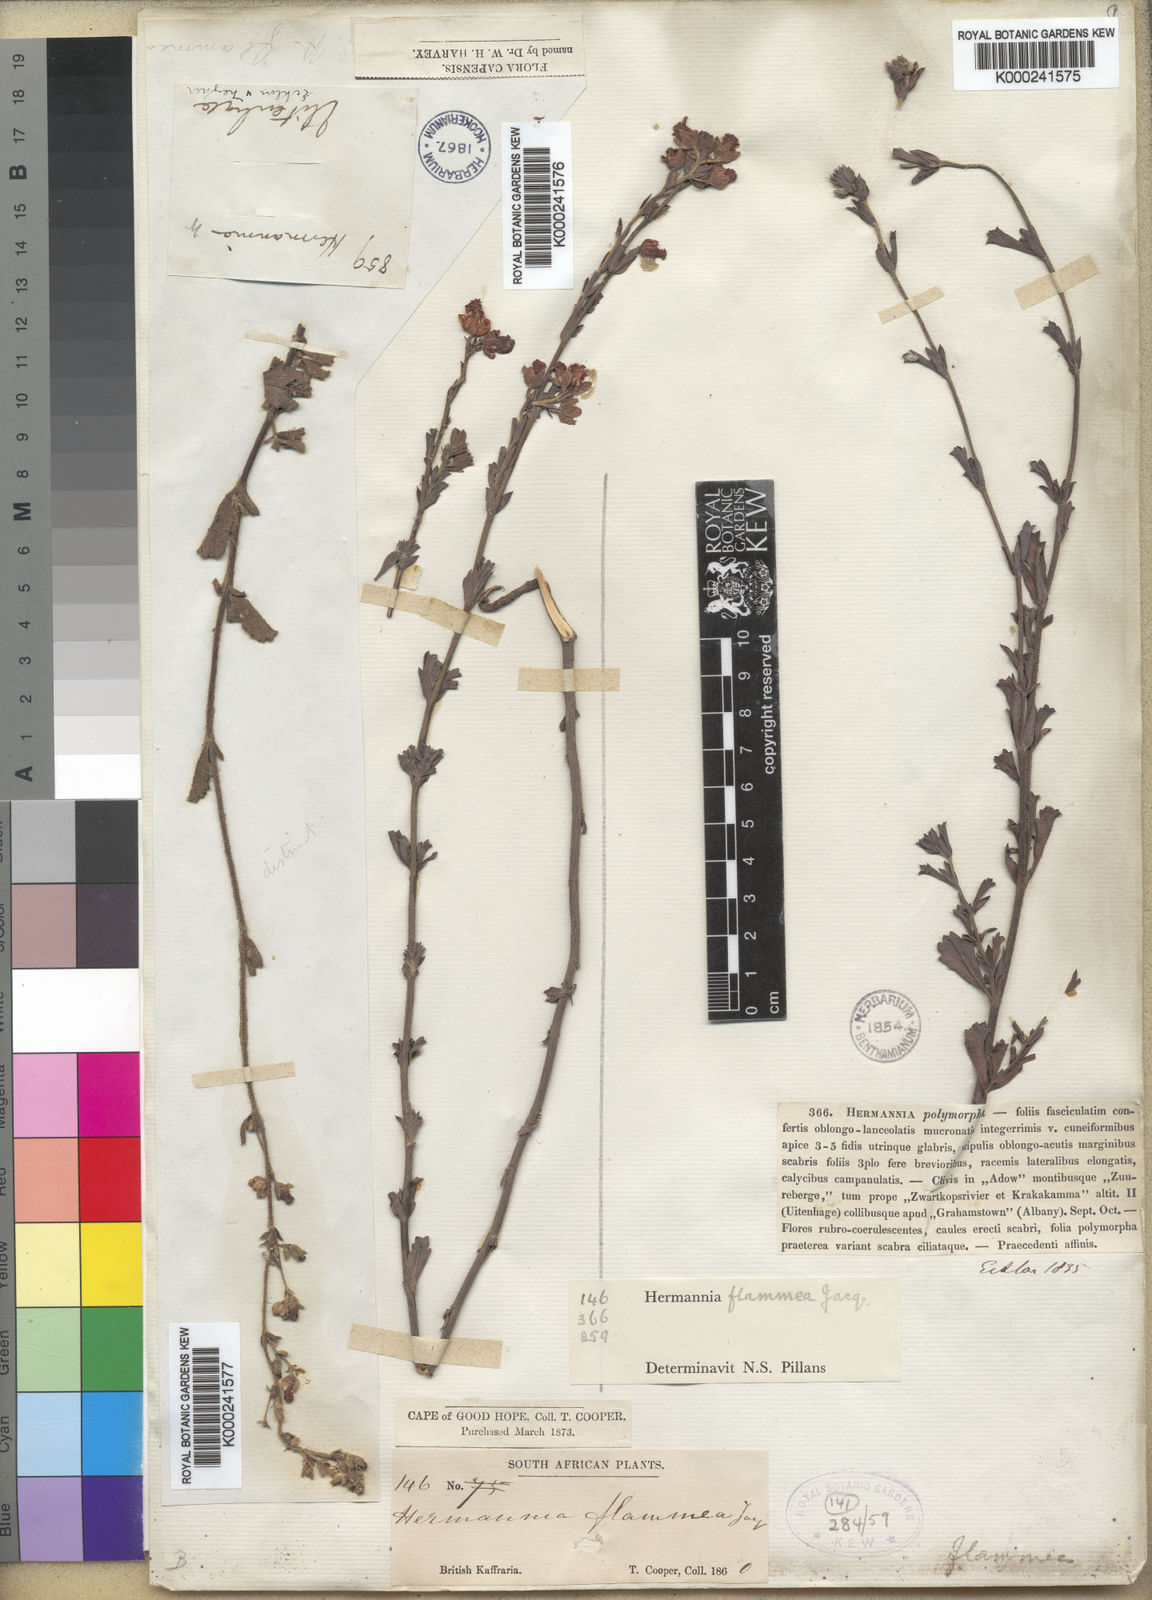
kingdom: Plantae
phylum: Tracheophyta
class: Magnoliopsida
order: Malvales
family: Malvaceae
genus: Hermannia
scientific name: Hermannia flammea
